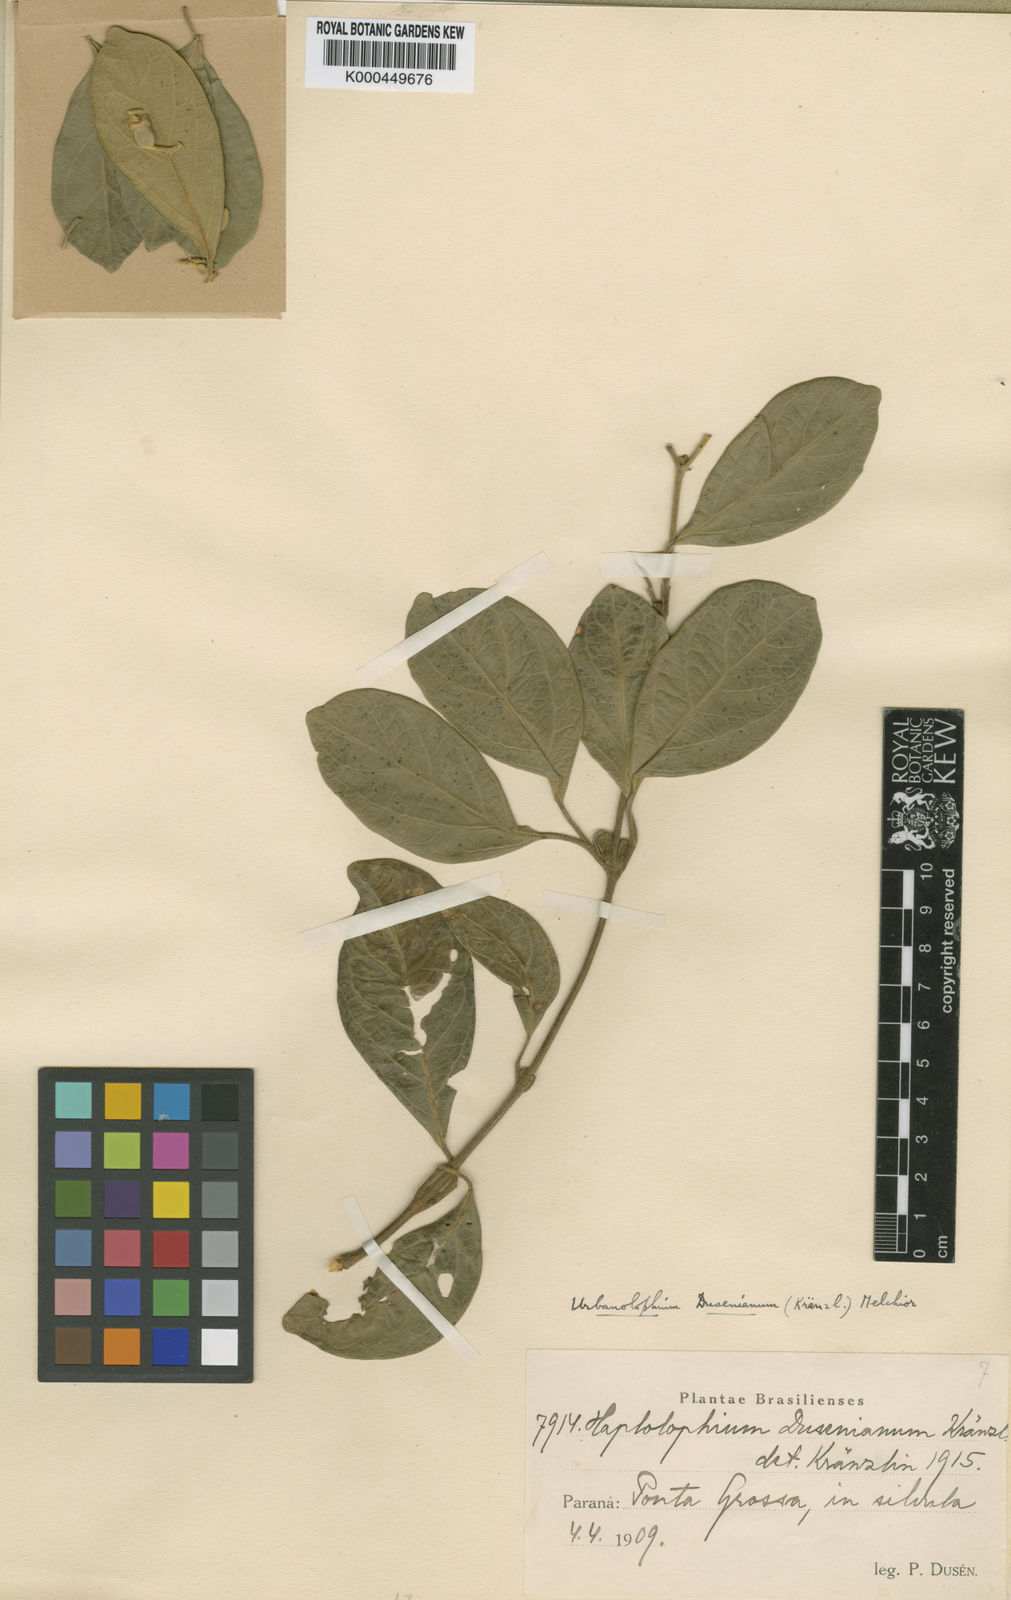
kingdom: Plantae
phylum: Tracheophyta
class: Magnoliopsida
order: Lamiales
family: Bignoniaceae
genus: Amphilophium
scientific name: Amphilophium dusenianum
